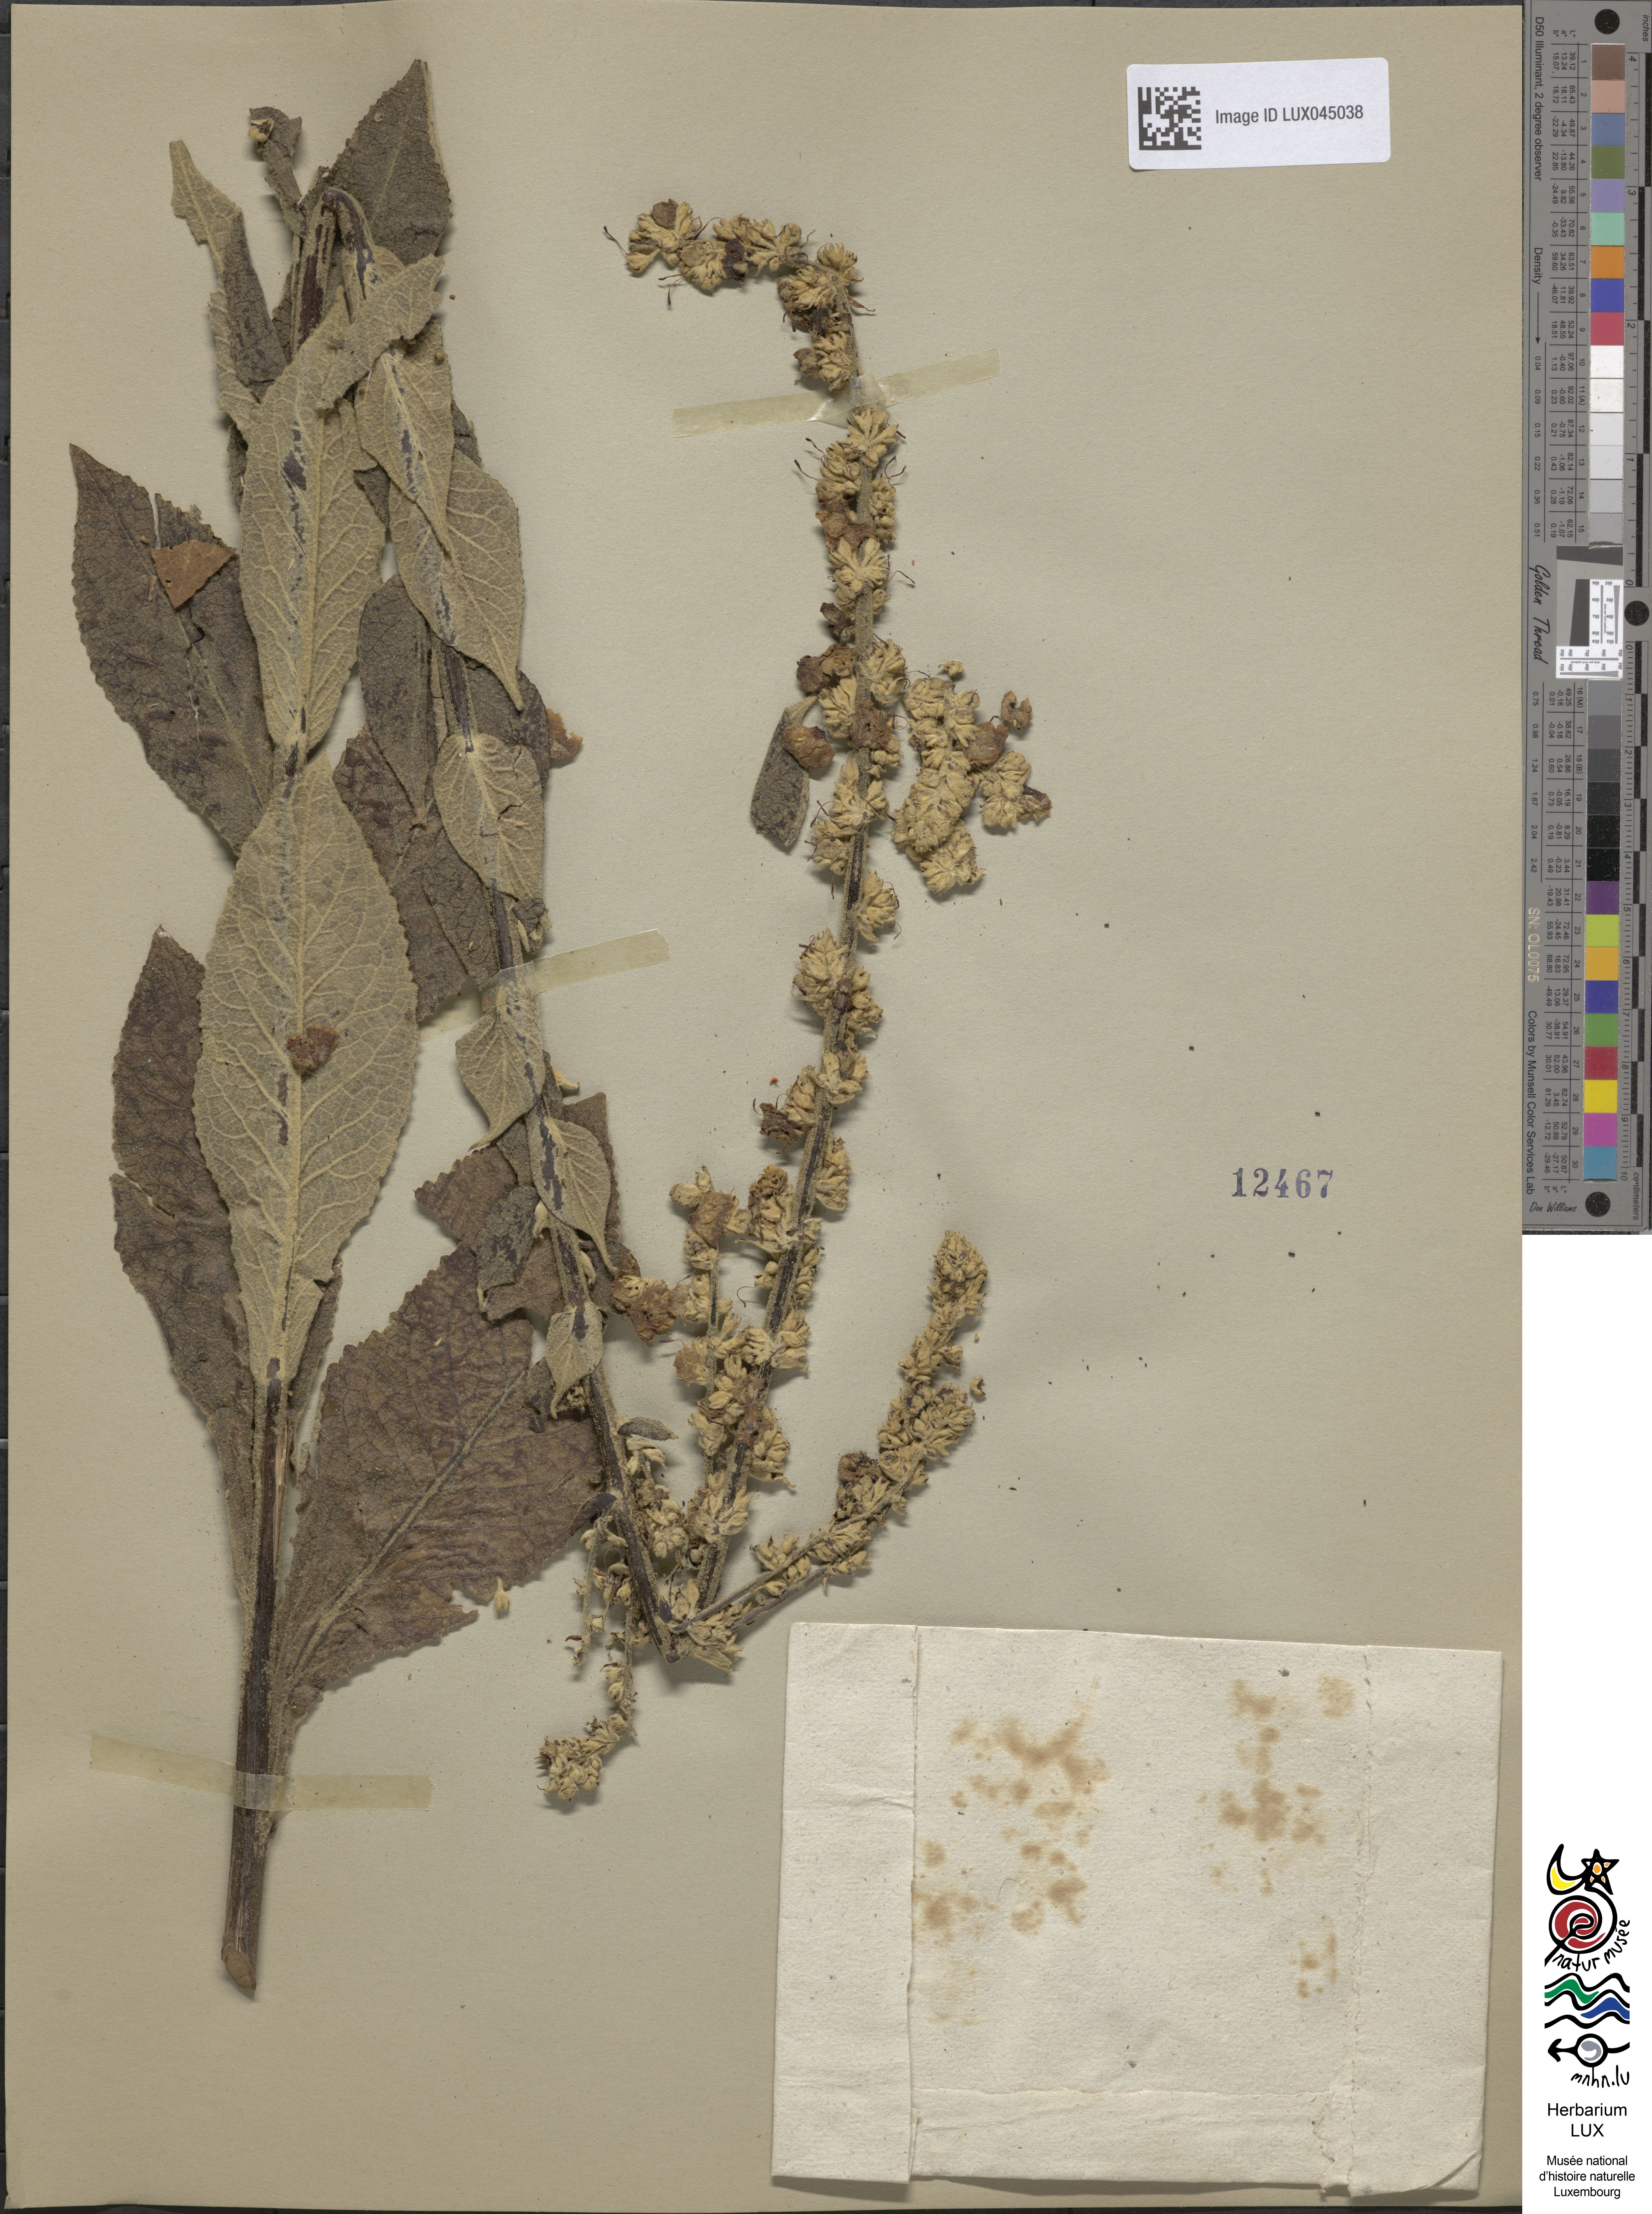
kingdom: Plantae
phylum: Tracheophyta
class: Magnoliopsida
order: Lamiales
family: Scrophulariaceae
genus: Verbascum
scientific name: Verbascum ramigerum
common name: Mullein
